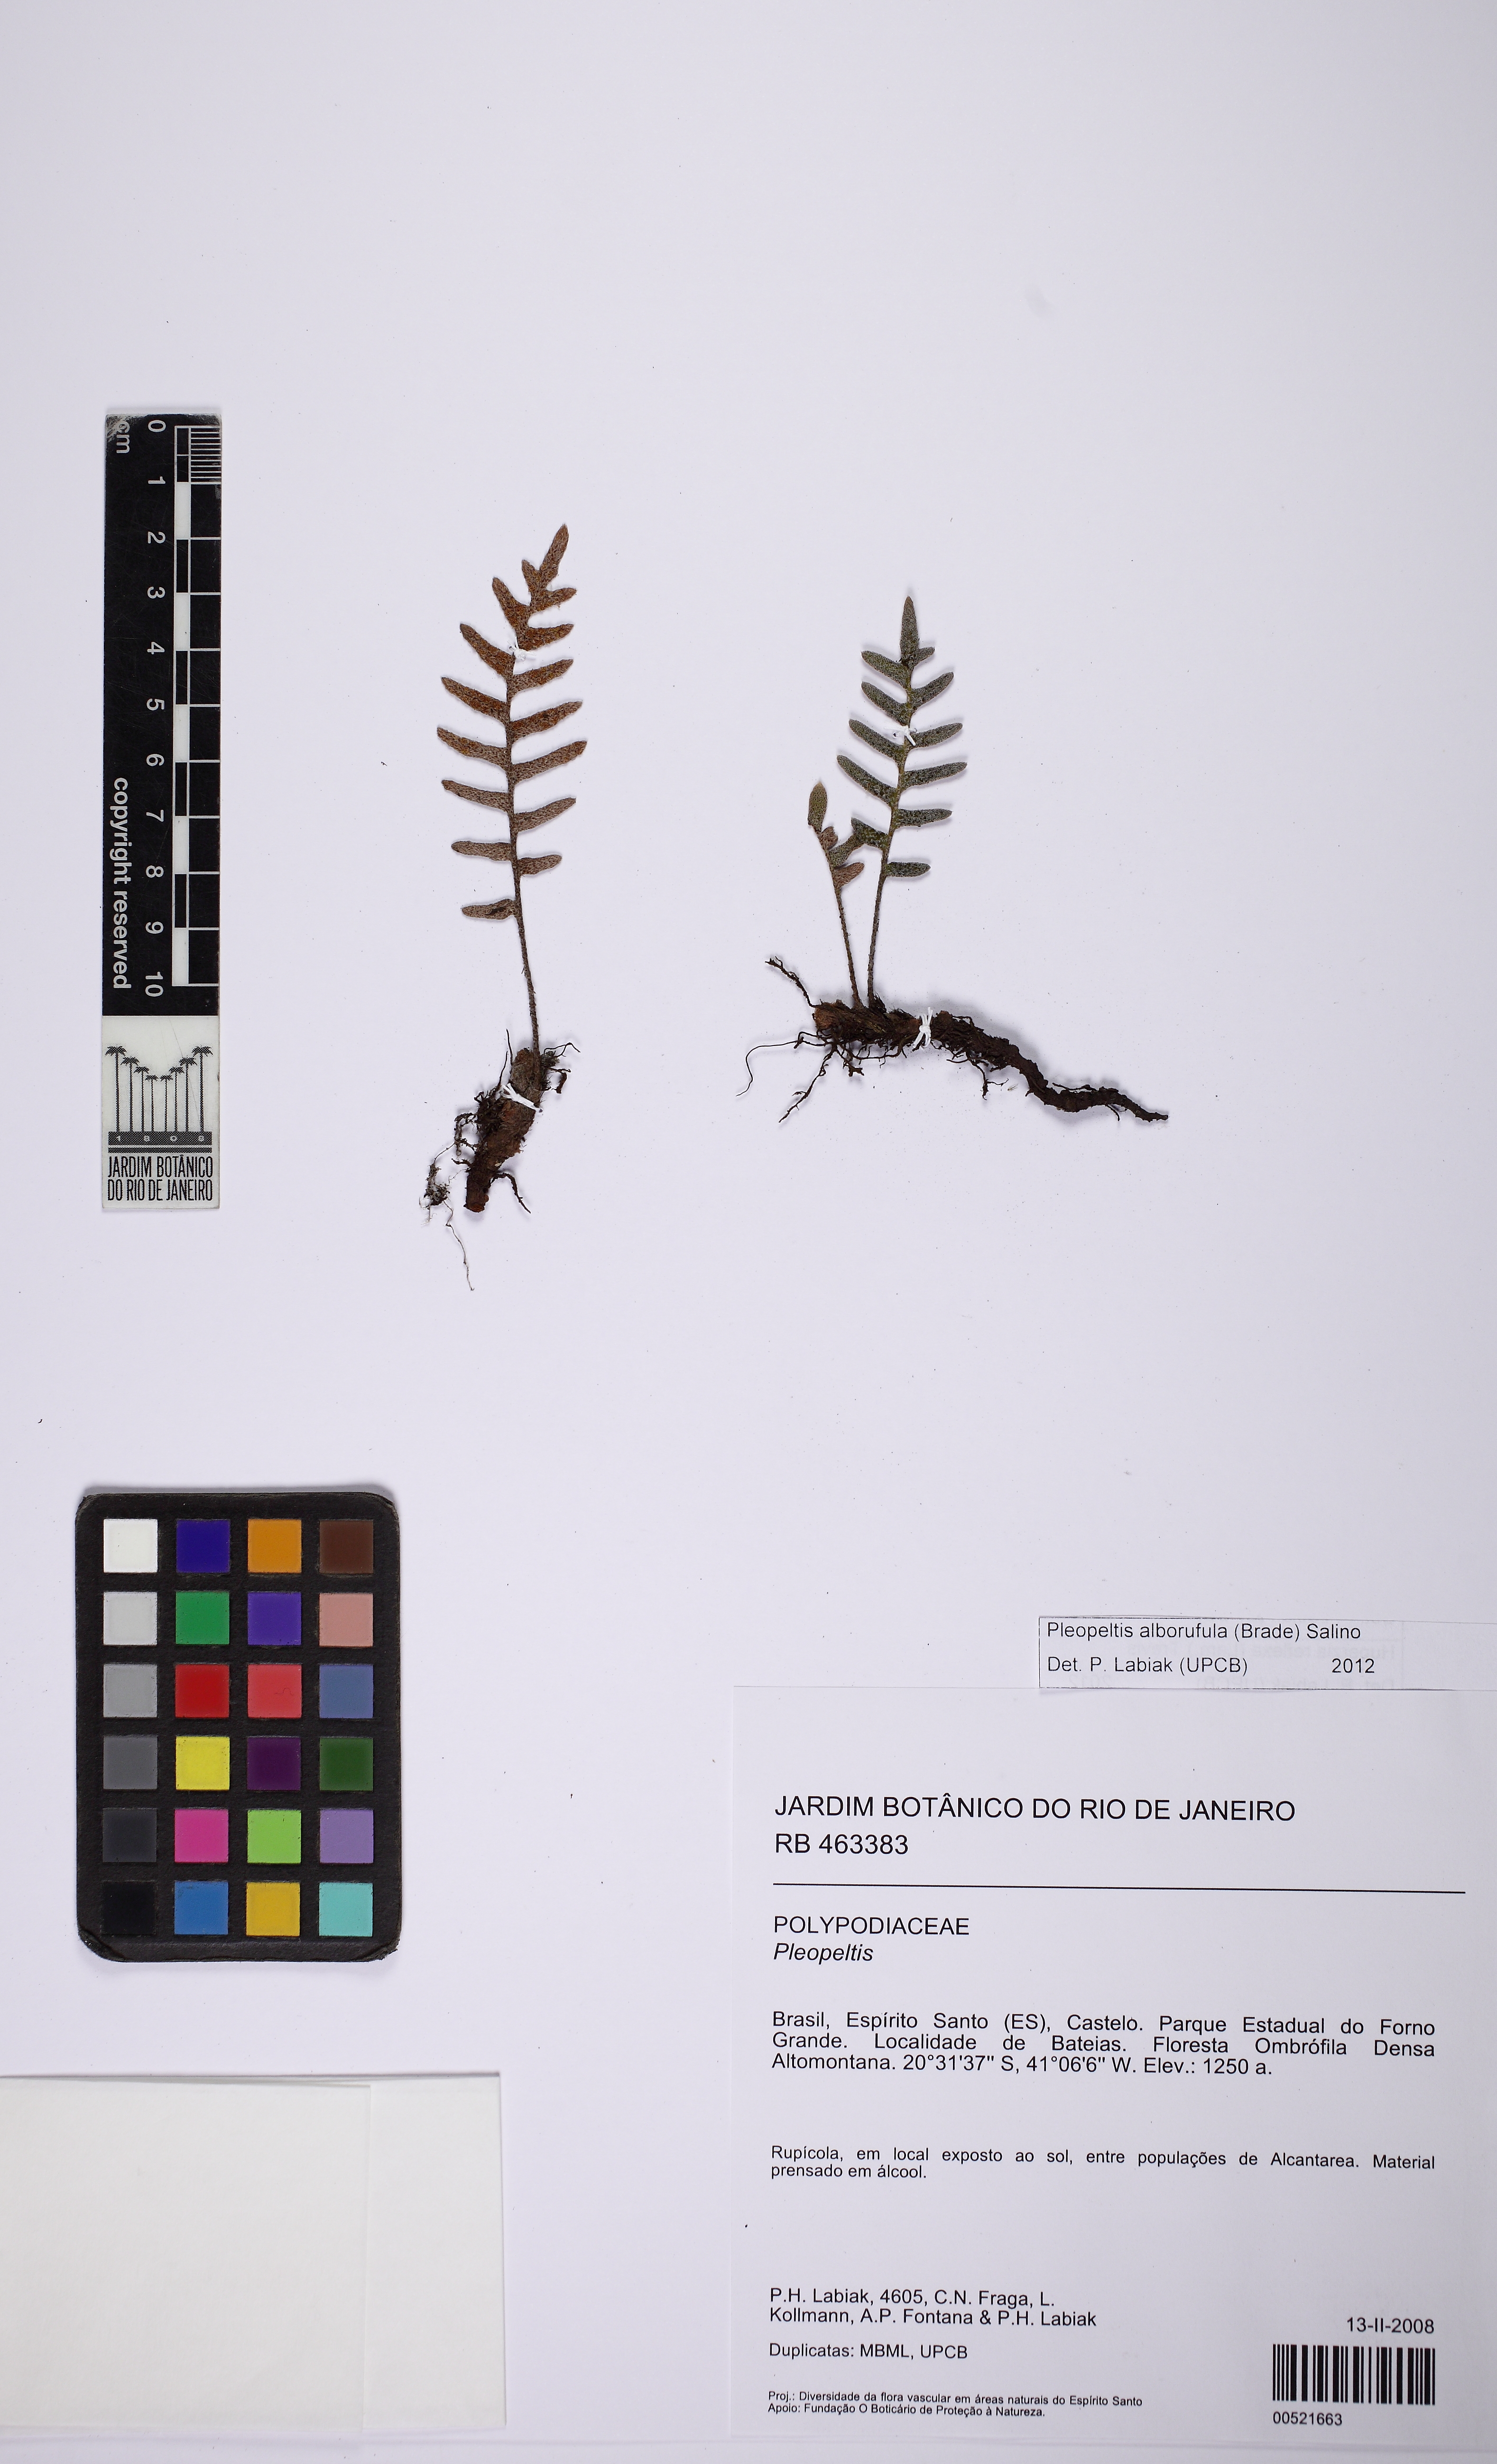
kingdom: Plantae
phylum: Tracheophyta
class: Polypodiopsida
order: Polypodiales
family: Polypodiaceae
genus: Pleopeltis
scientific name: Pleopeltis alborufula
